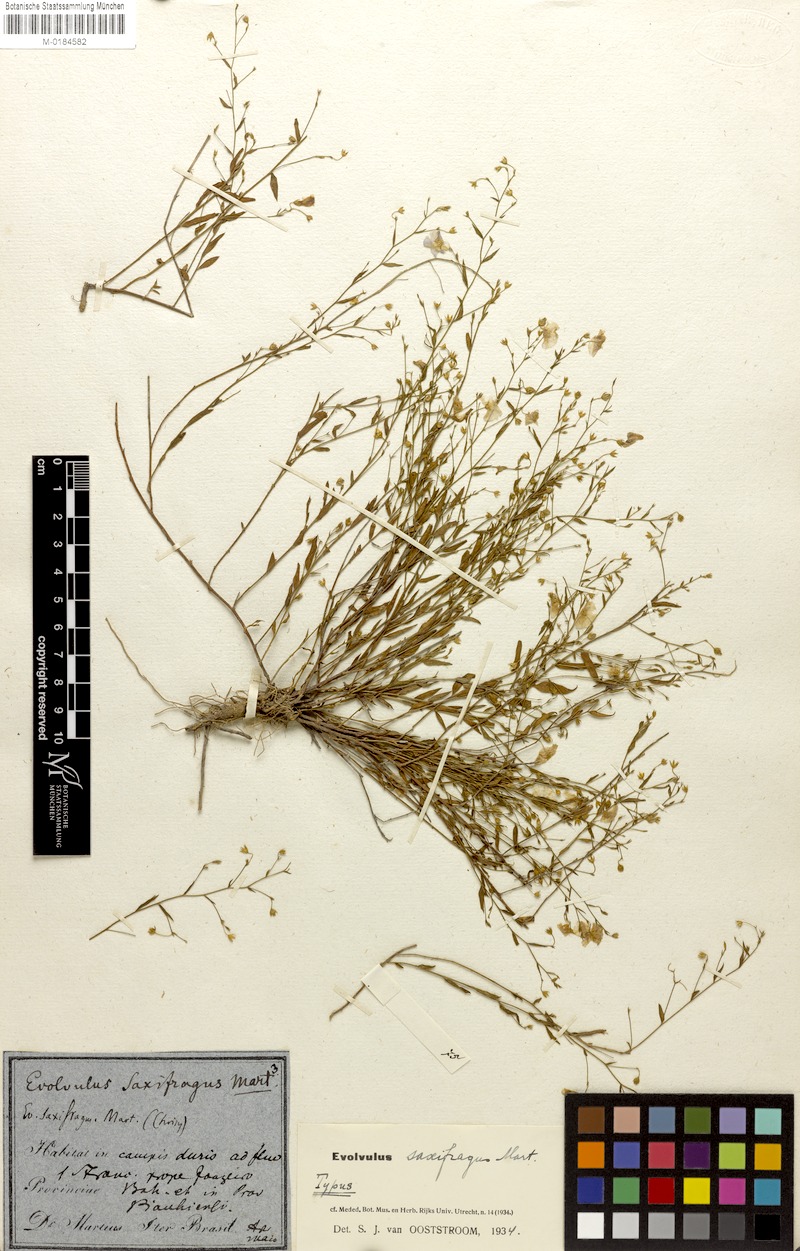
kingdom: Plantae
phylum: Tracheophyta
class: Magnoliopsida
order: Solanales
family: Convolvulaceae
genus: Evolvulus
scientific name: Evolvulus saxifragus
